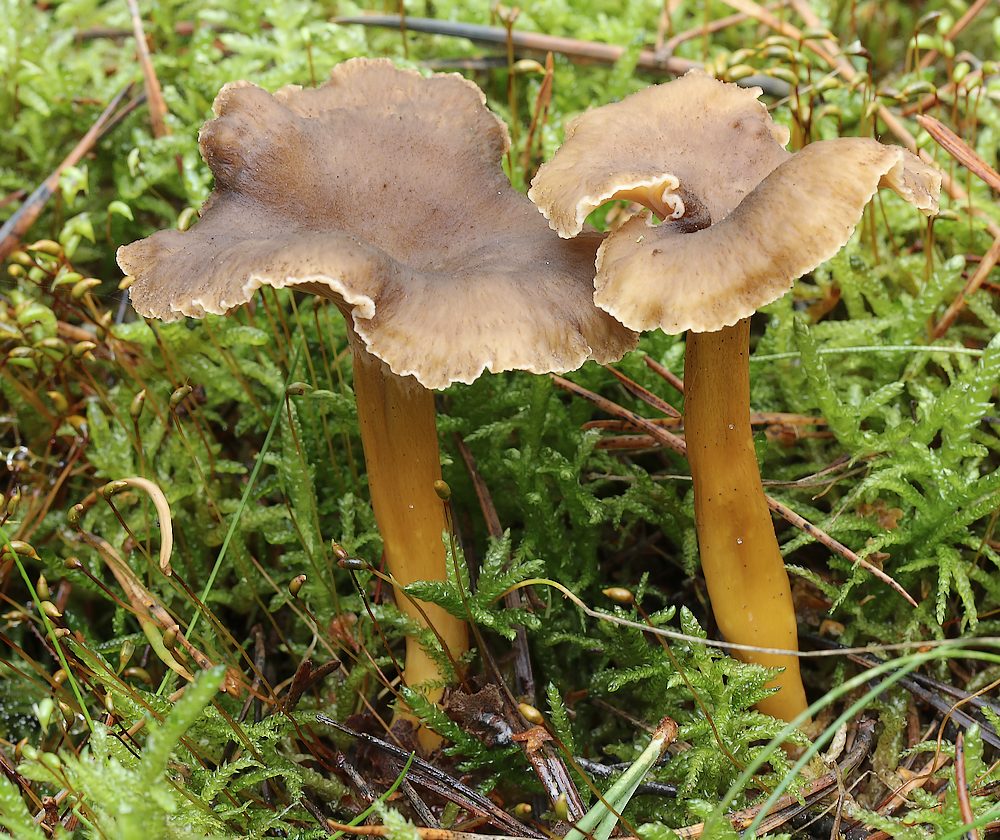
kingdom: Fungi
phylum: Basidiomycota
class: Agaricomycetes
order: Cantharellales
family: Hydnaceae
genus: Craterellus
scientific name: Craterellus tubaeformis
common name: tragt-kantarel
